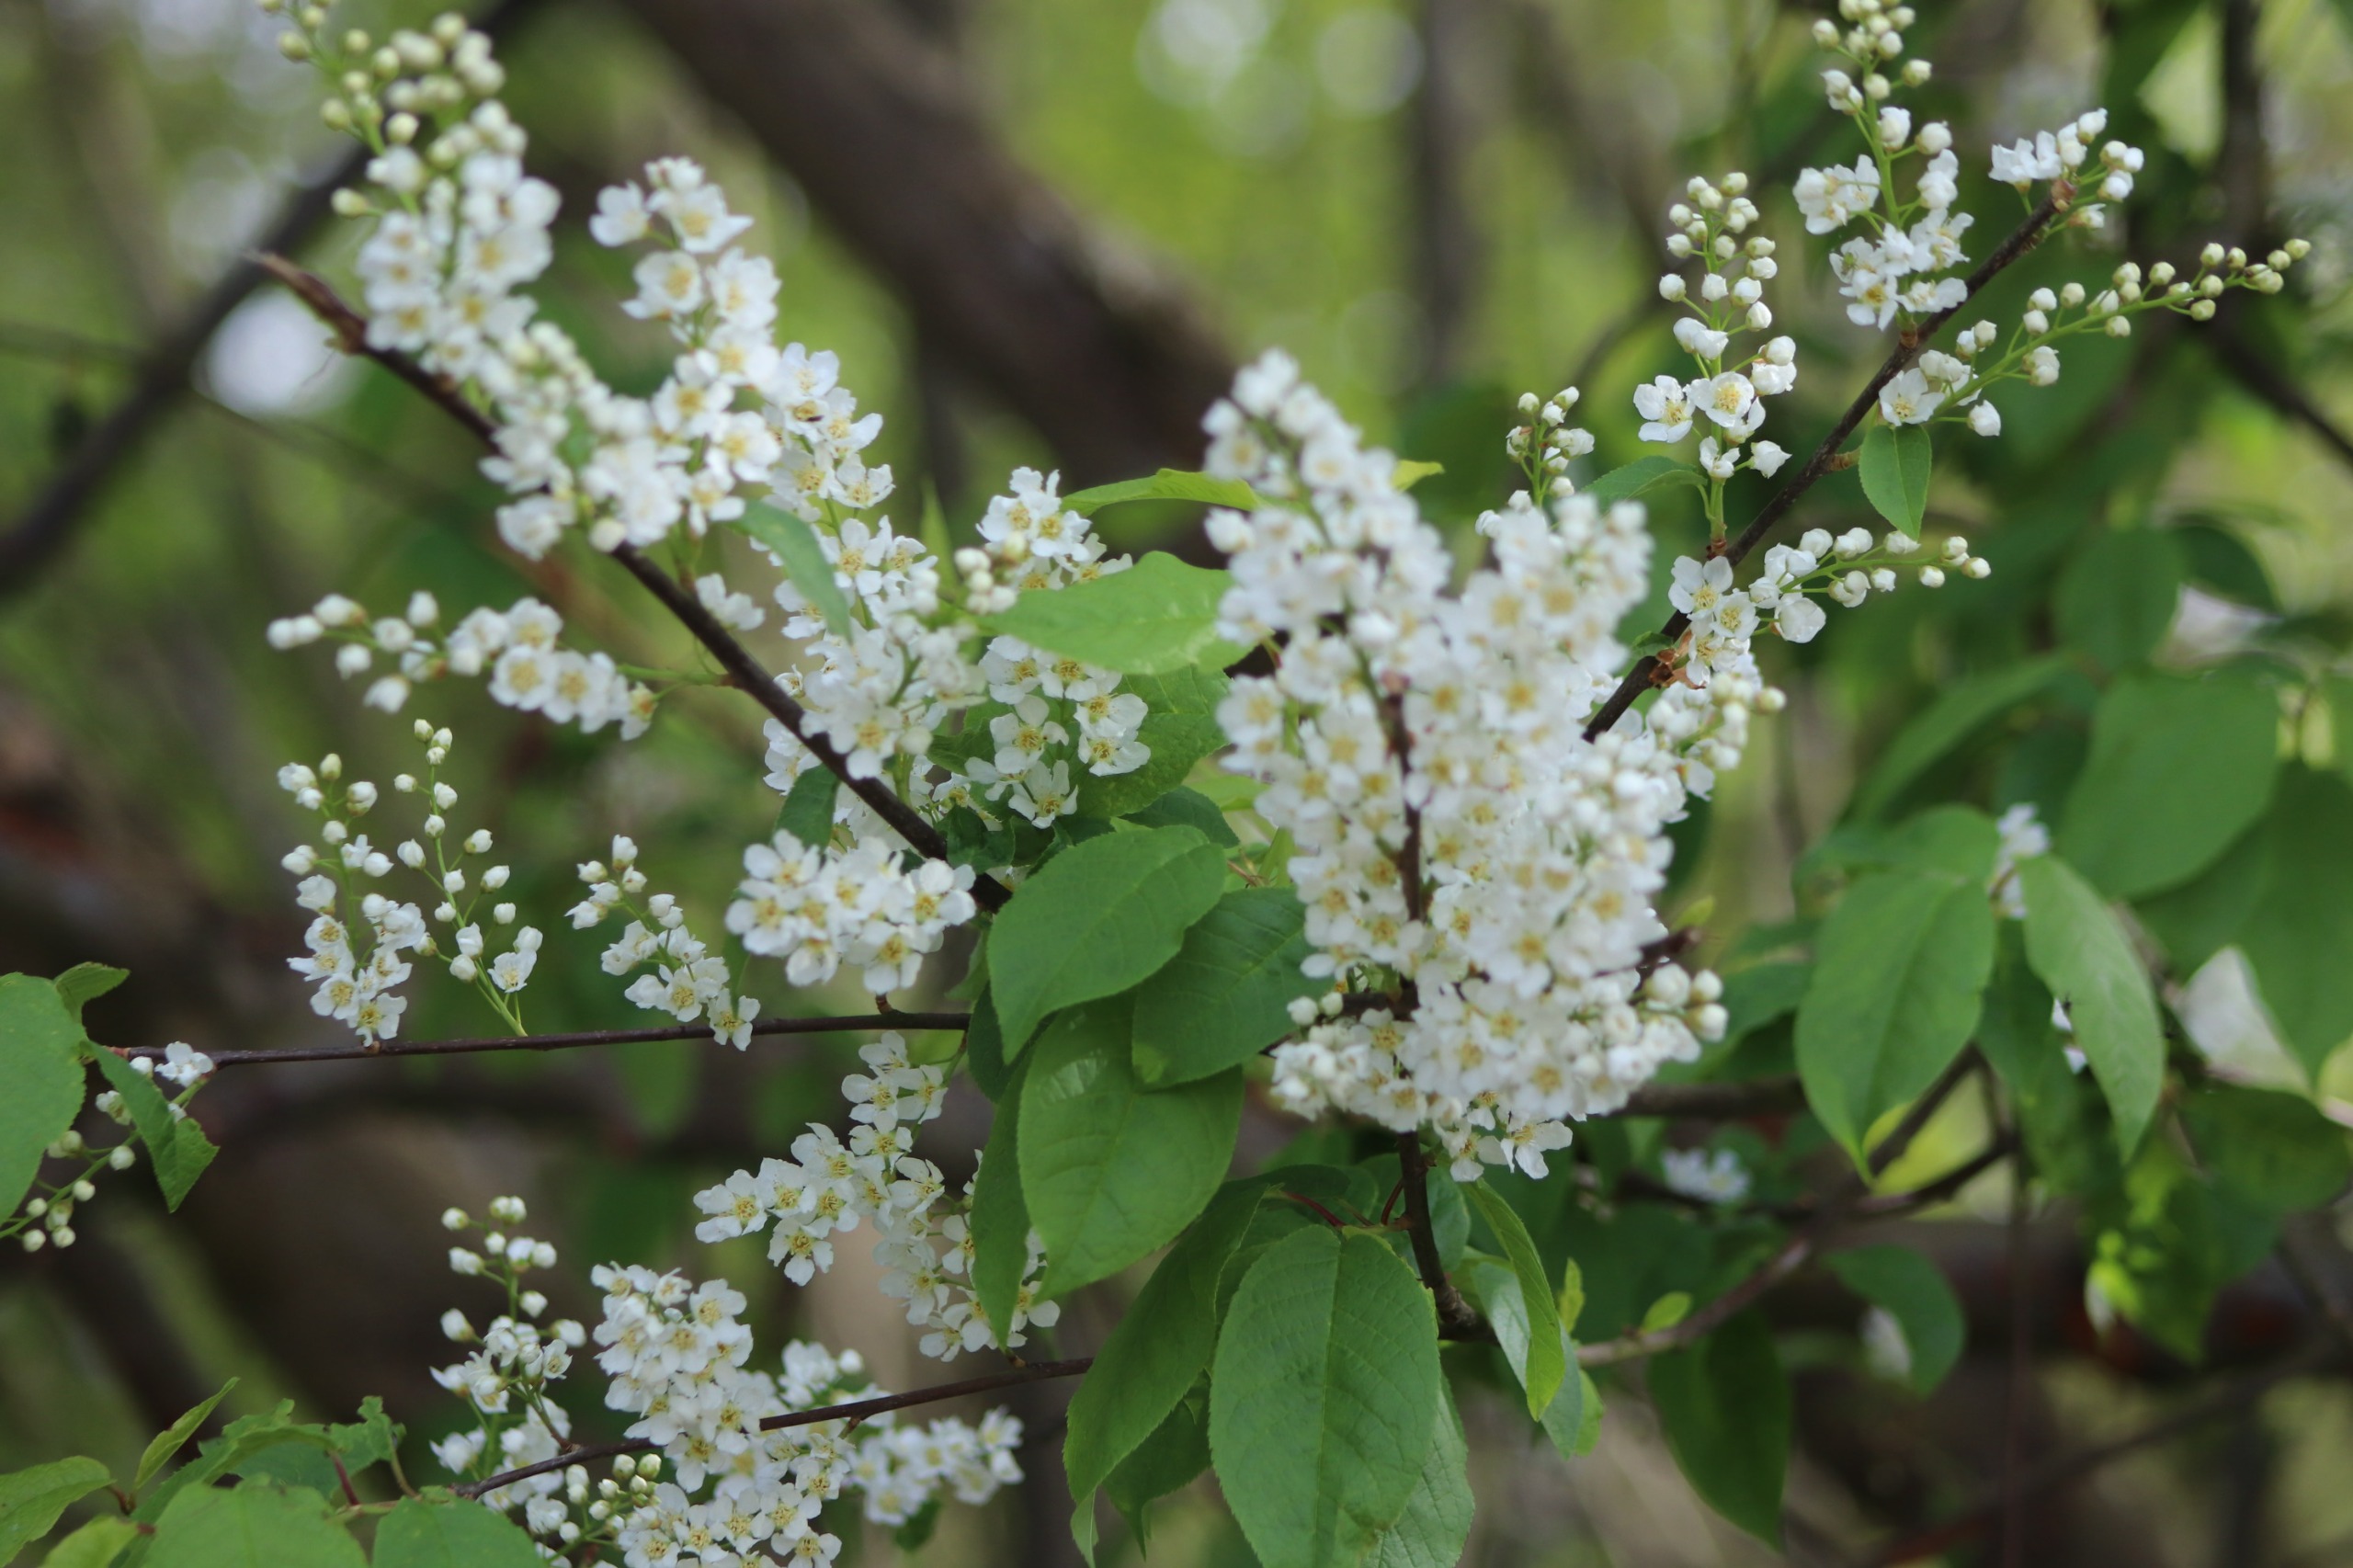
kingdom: Plantae
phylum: Tracheophyta
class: Magnoliopsida
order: Rosales
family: Rosaceae
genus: Prunus
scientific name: Prunus padus
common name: Almindelig hæg
